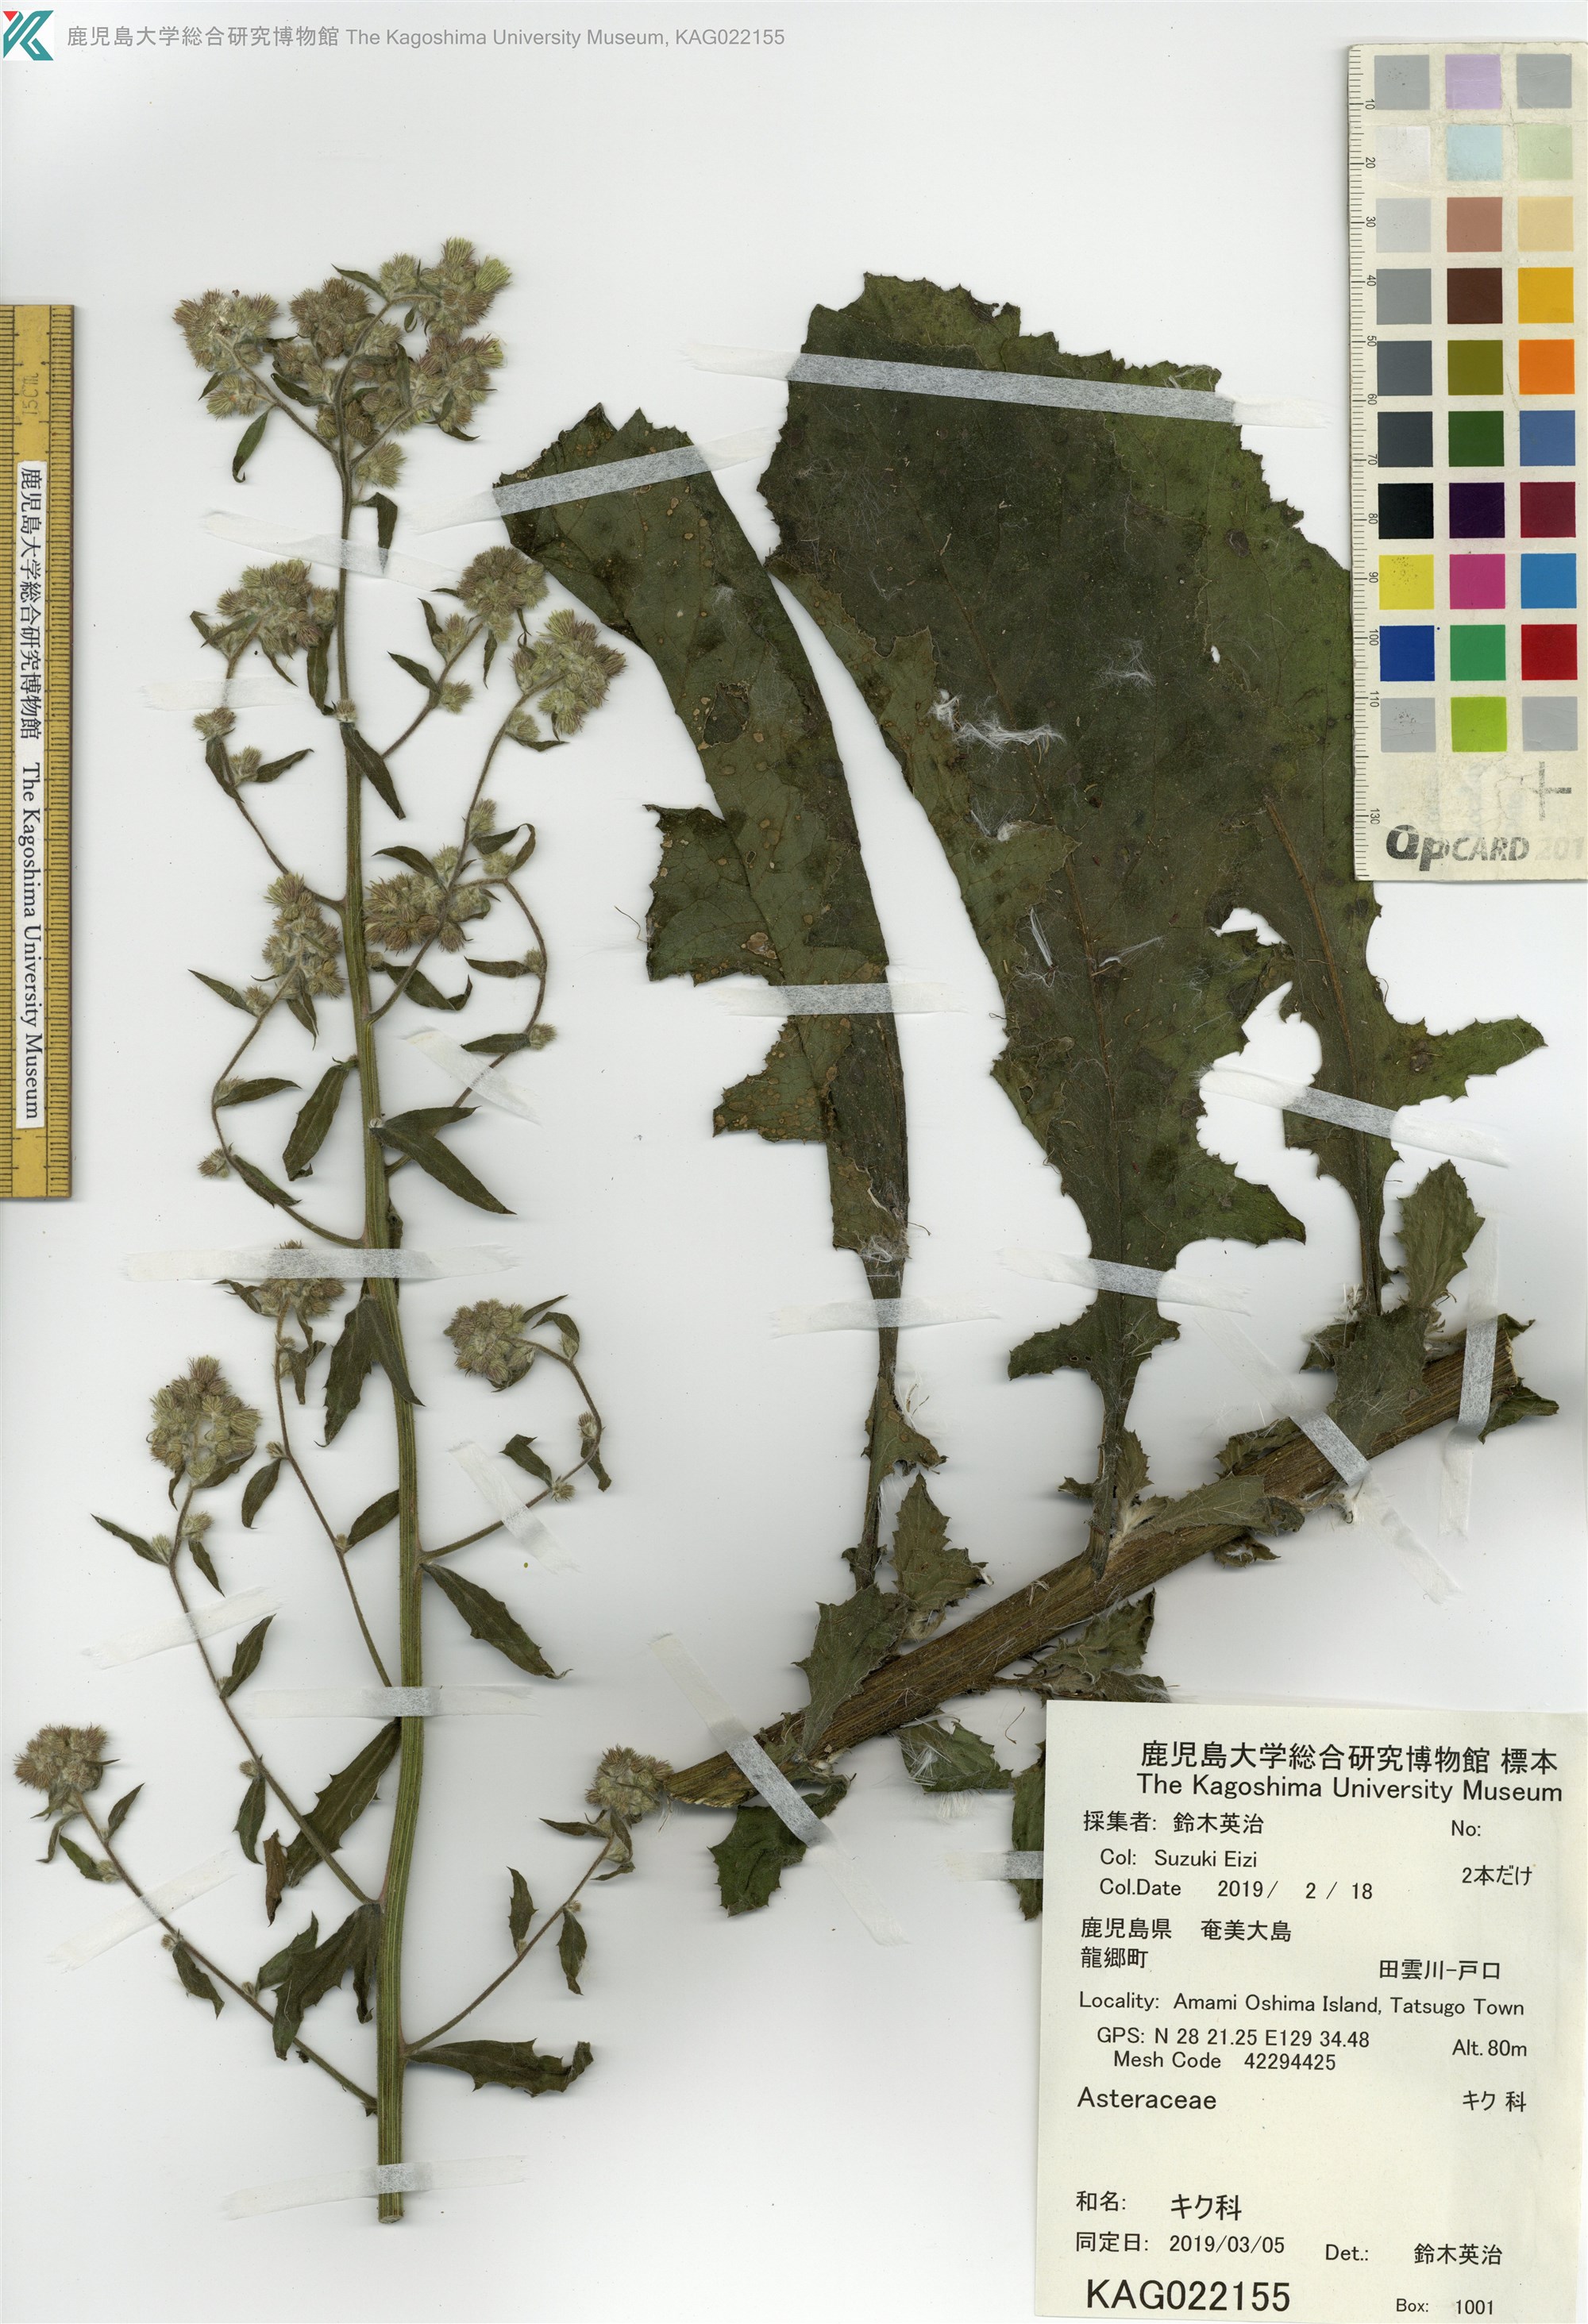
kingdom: Plantae
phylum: Tracheophyta
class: Magnoliopsida
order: Asterales
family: Asteraceae
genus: Blumea
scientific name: Blumea lacera
